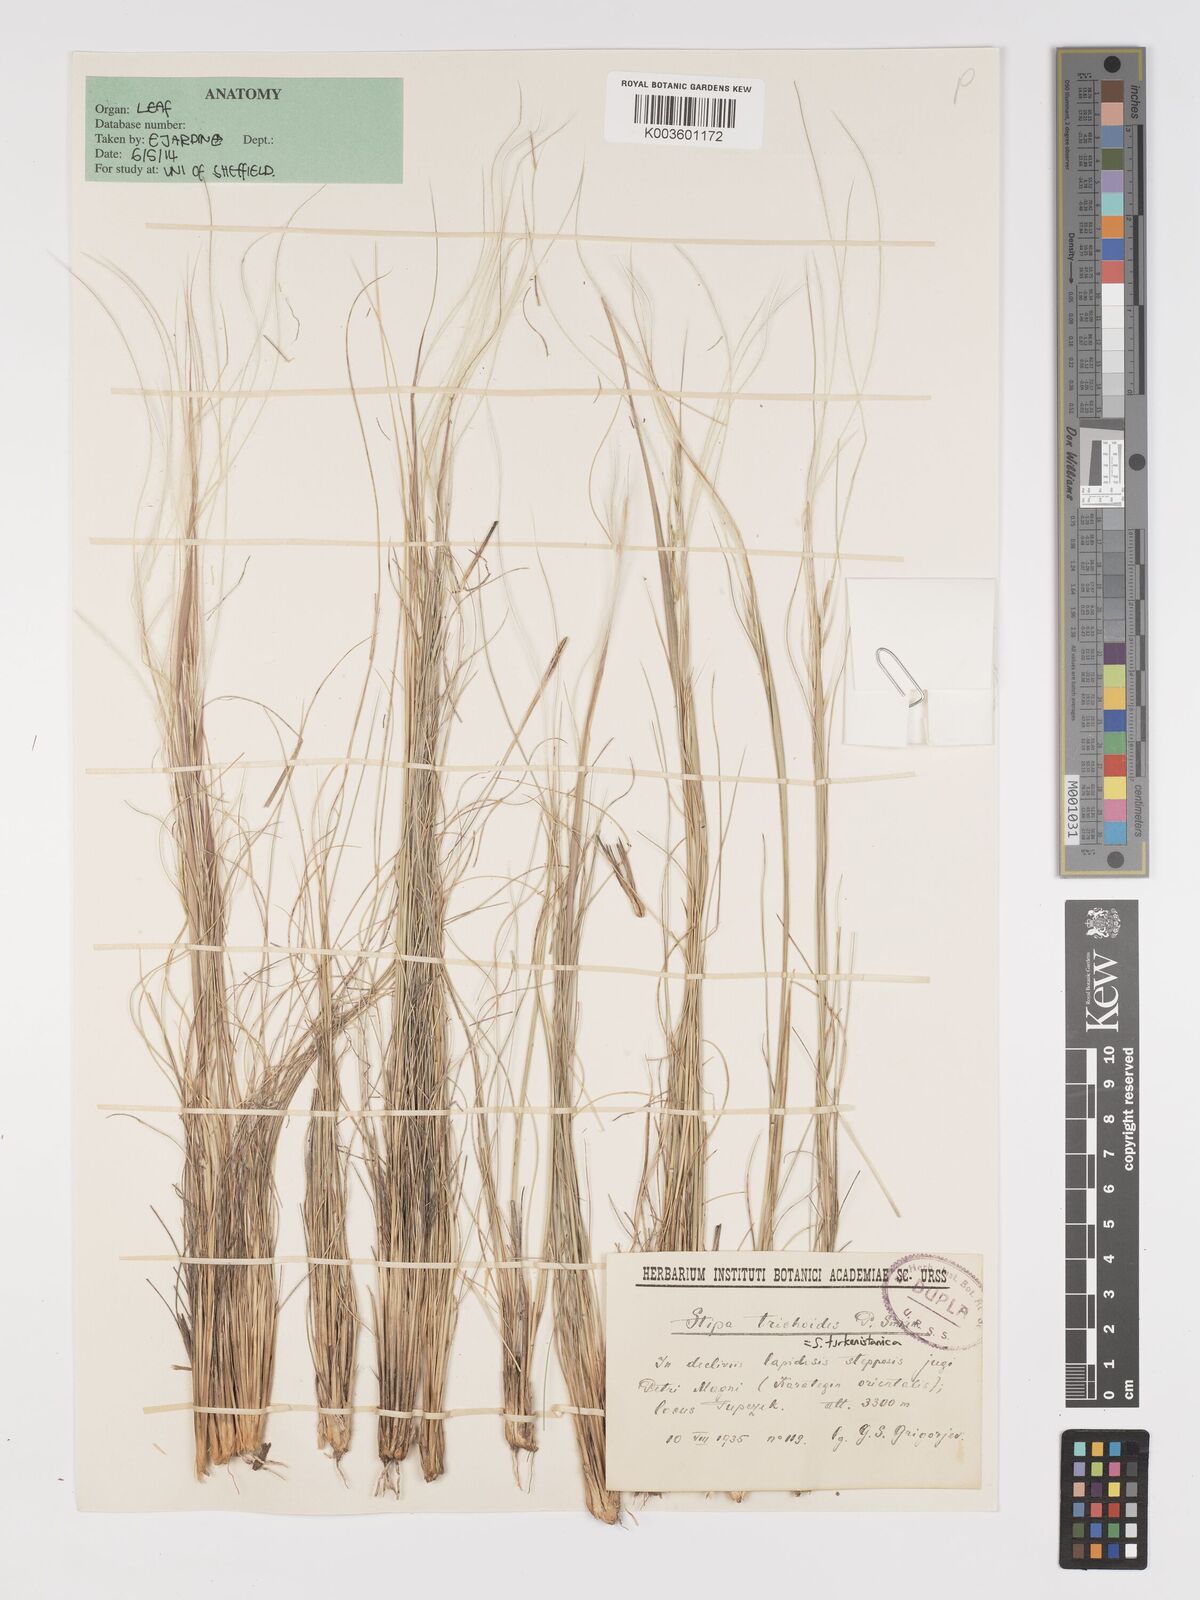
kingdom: Plantae
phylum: Tracheophyta
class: Liliopsida
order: Poales
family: Poaceae
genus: Stipa
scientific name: Stipa turkestanica
